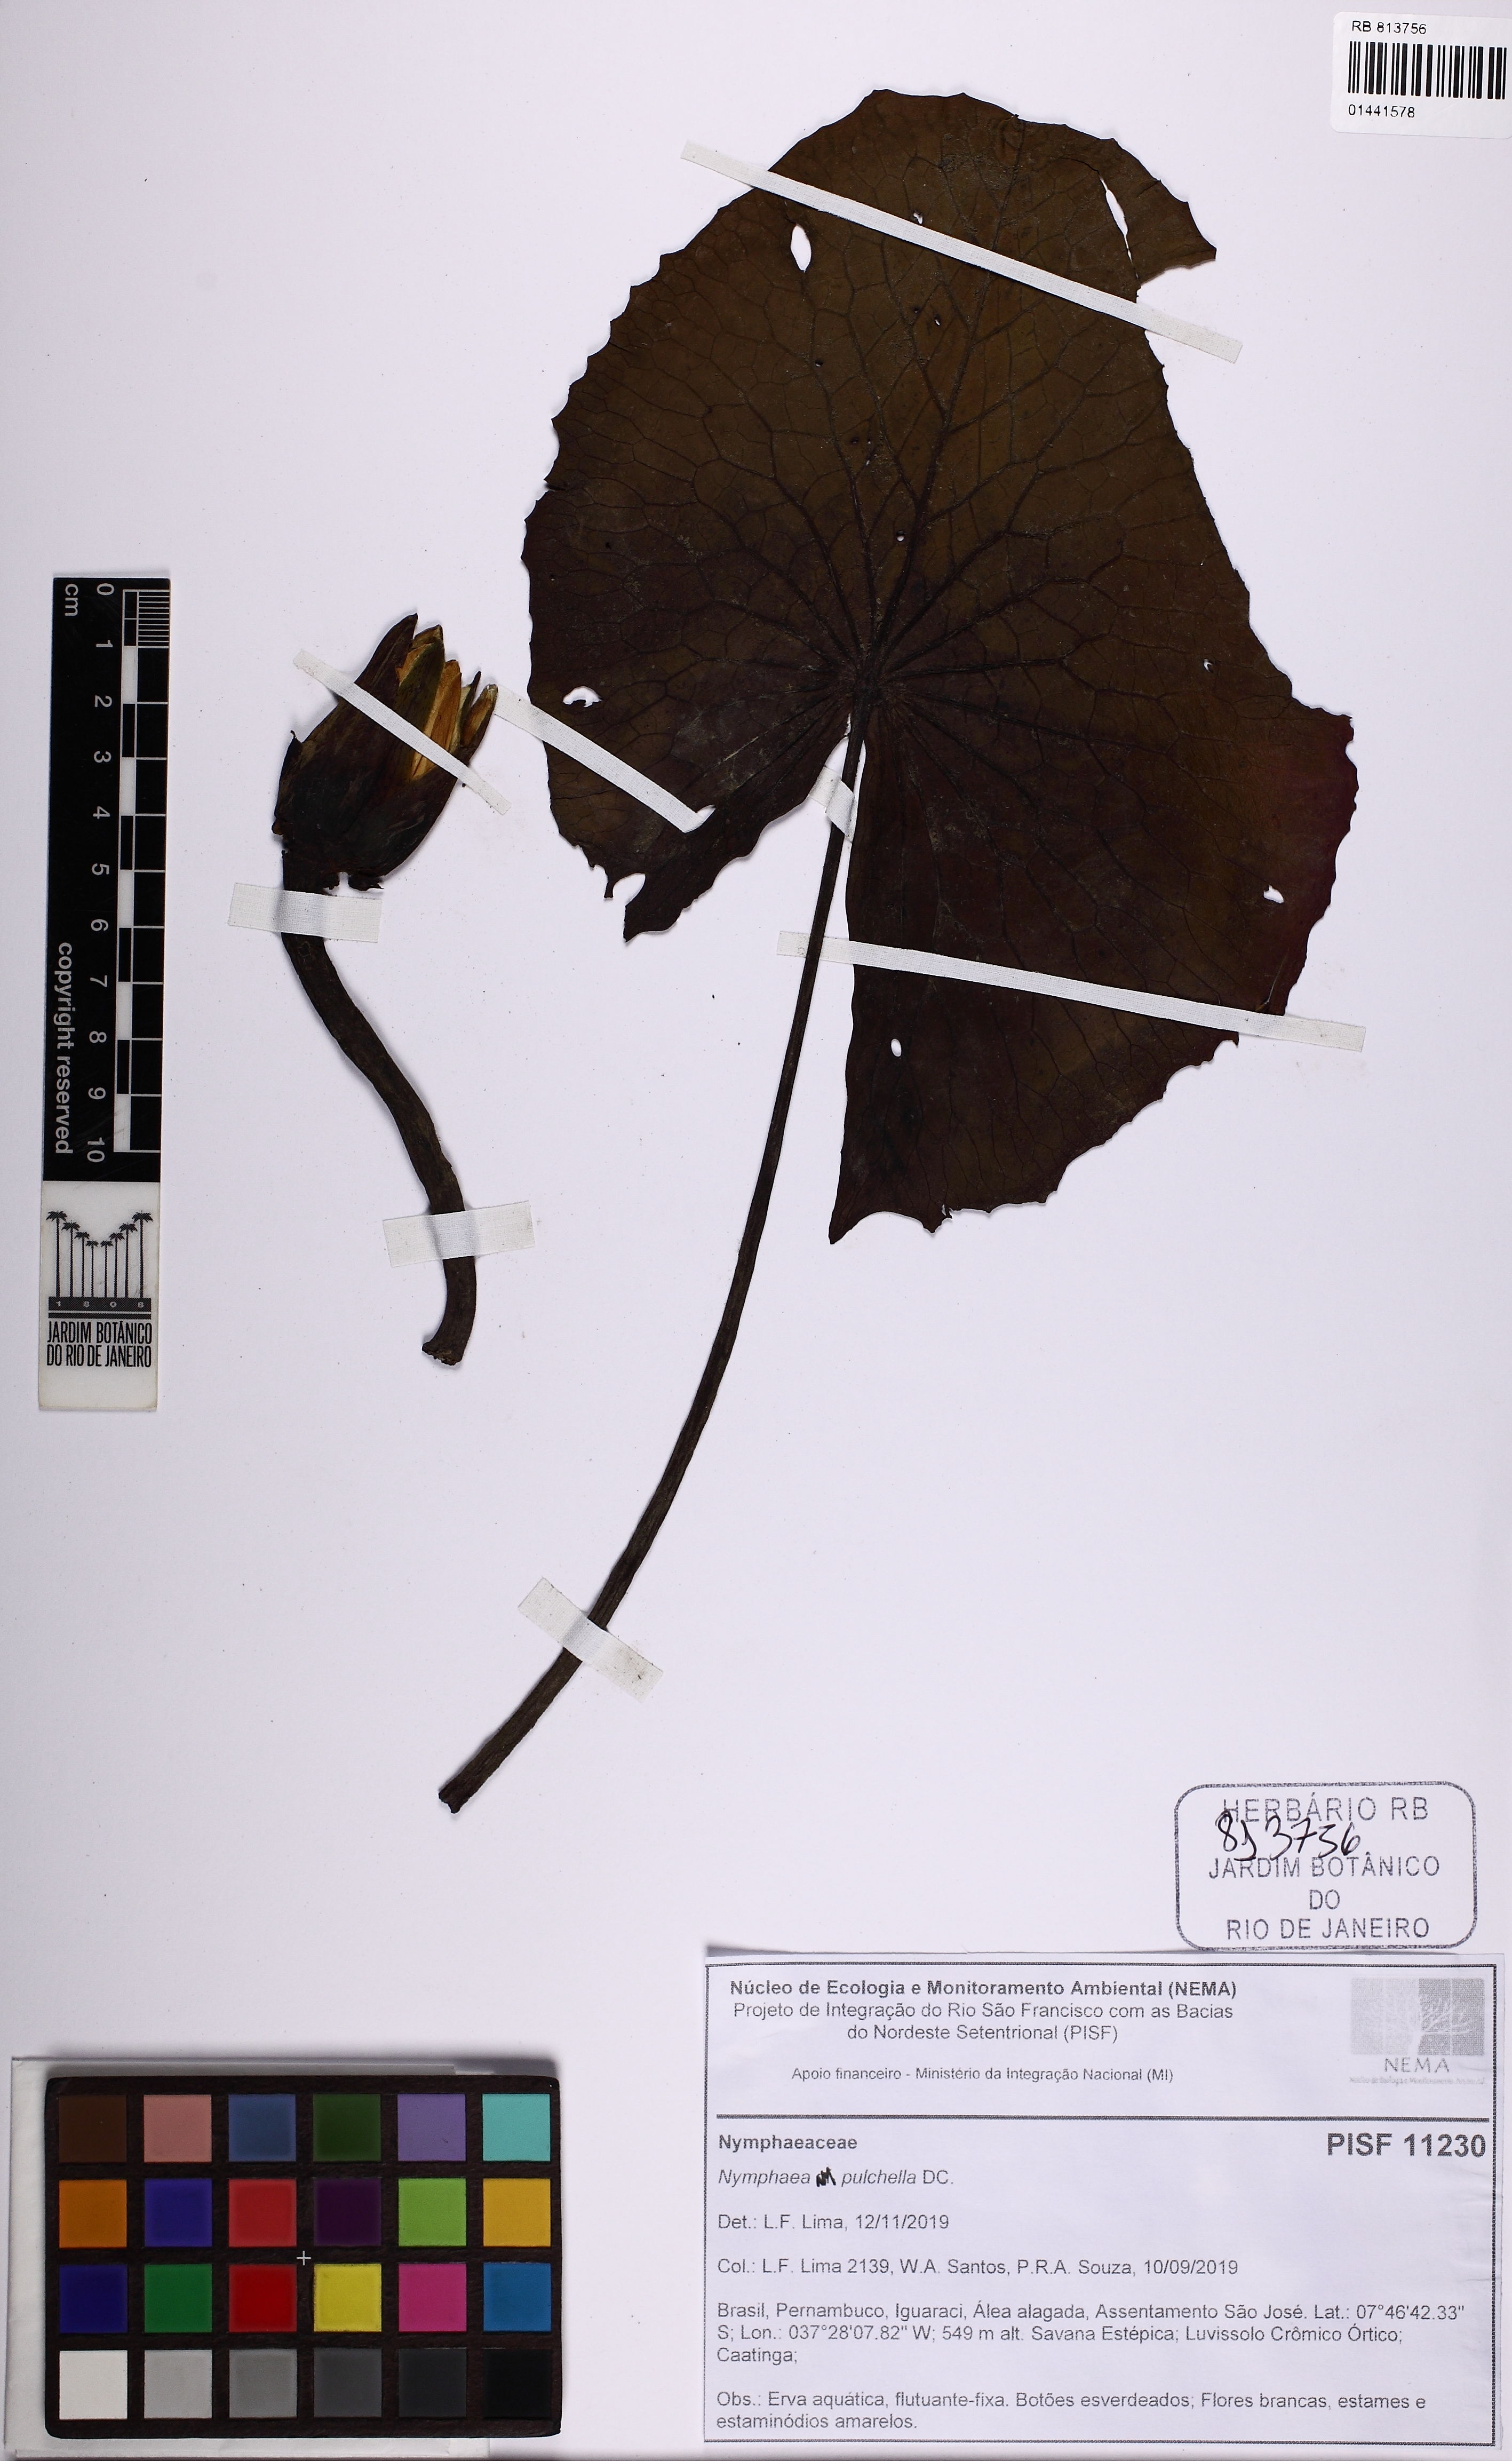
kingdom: Plantae
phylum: Tracheophyta
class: Magnoliopsida
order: Nymphaeales
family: Nymphaeaceae
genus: Nymphaea
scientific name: Nymphaea pulchella
